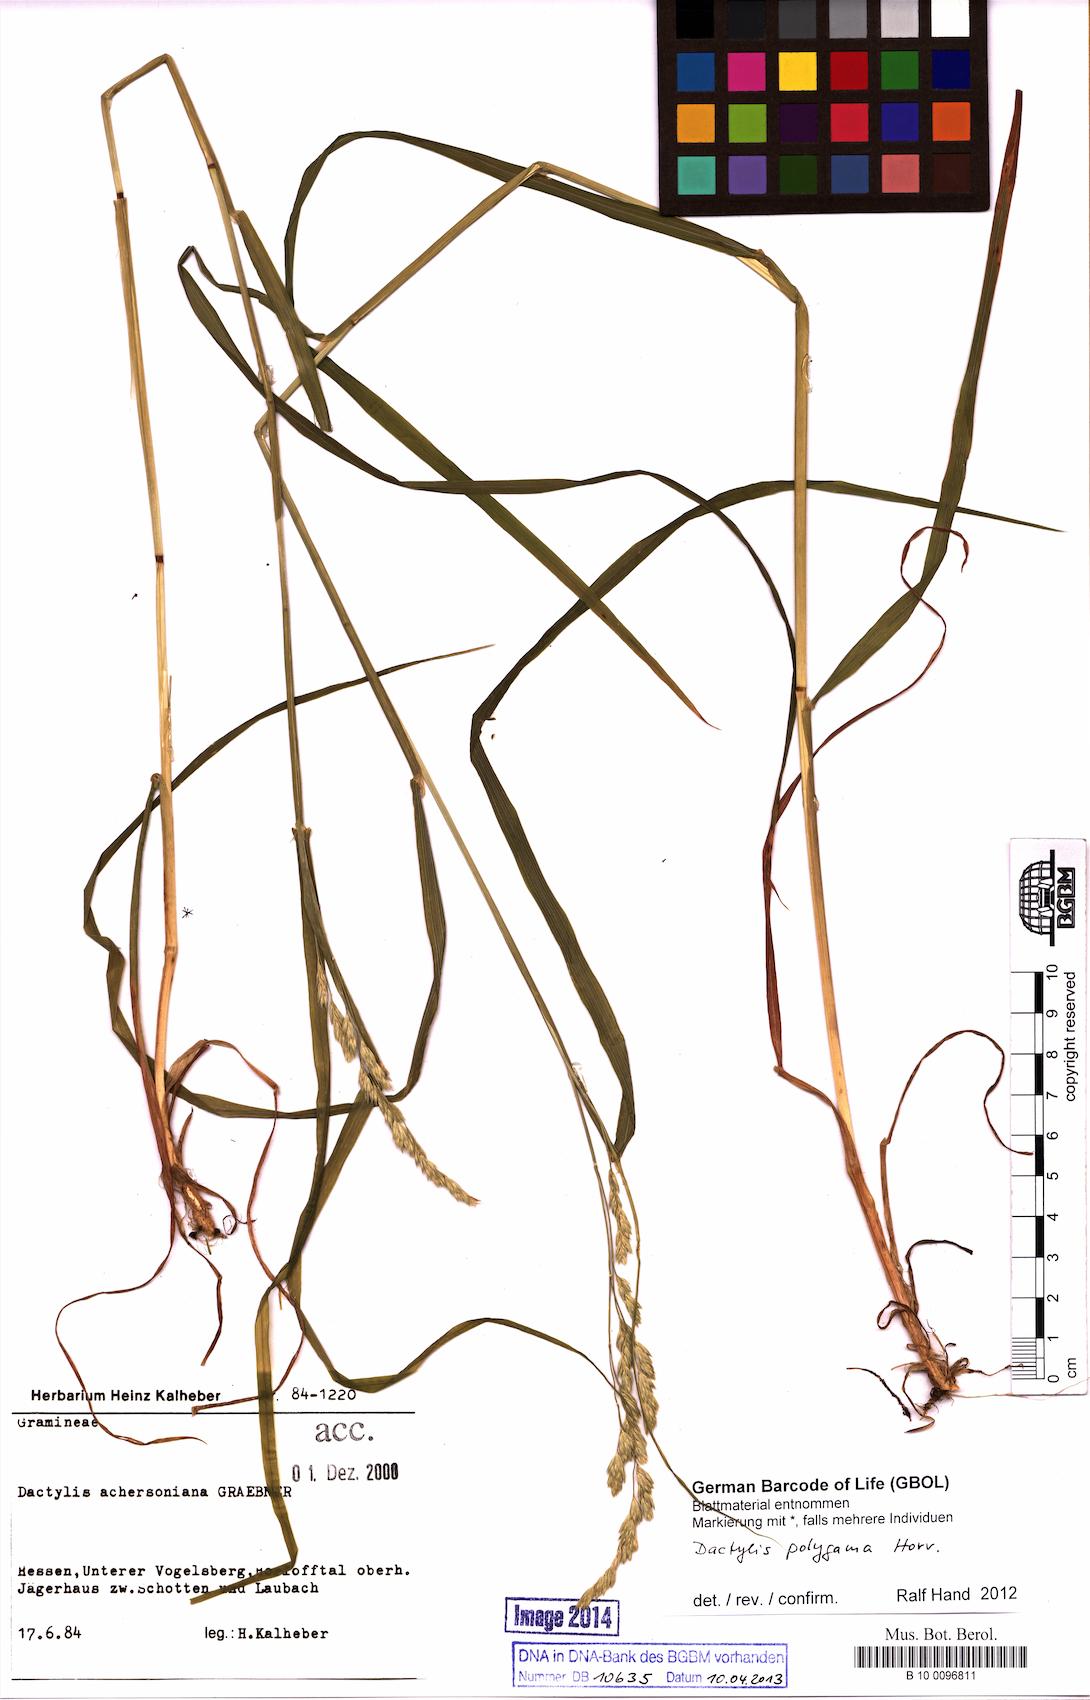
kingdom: Plantae
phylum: Tracheophyta
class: Liliopsida
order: Poales
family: Poaceae
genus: Dactylis
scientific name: Dactylis glomerata
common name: Orchardgrass
